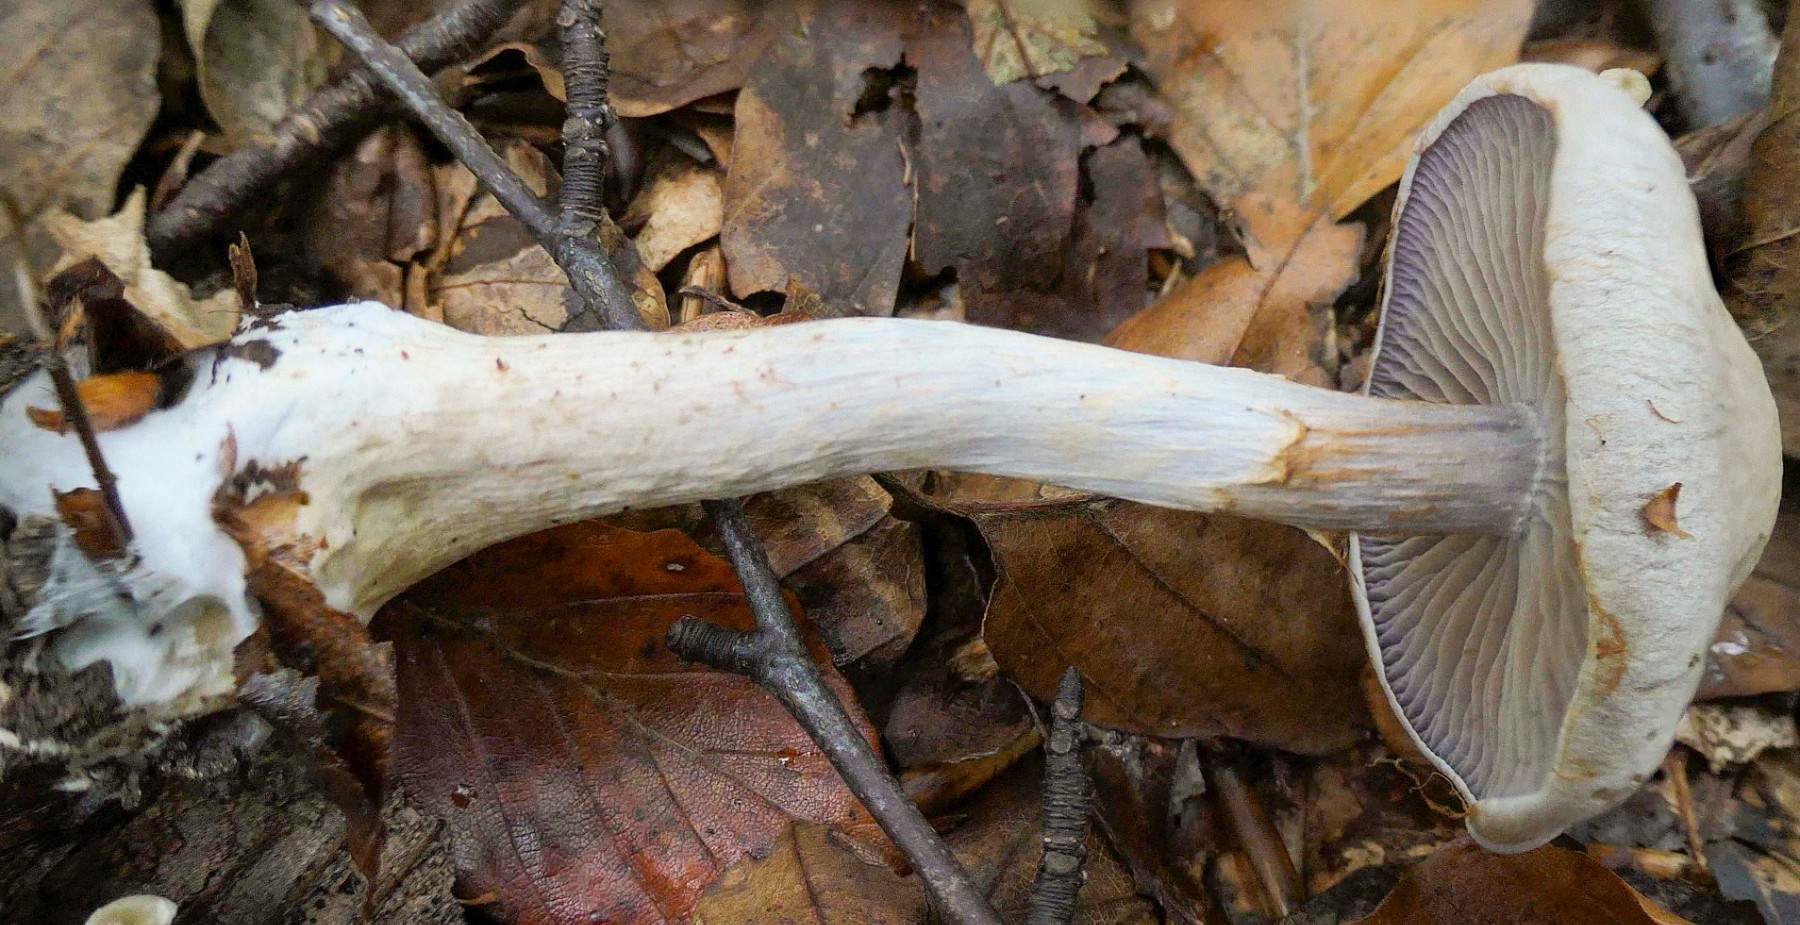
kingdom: Fungi
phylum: Basidiomycota
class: Agaricomycetes
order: Agaricales
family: Cortinariaceae
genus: Cortinarius
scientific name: Cortinarius
